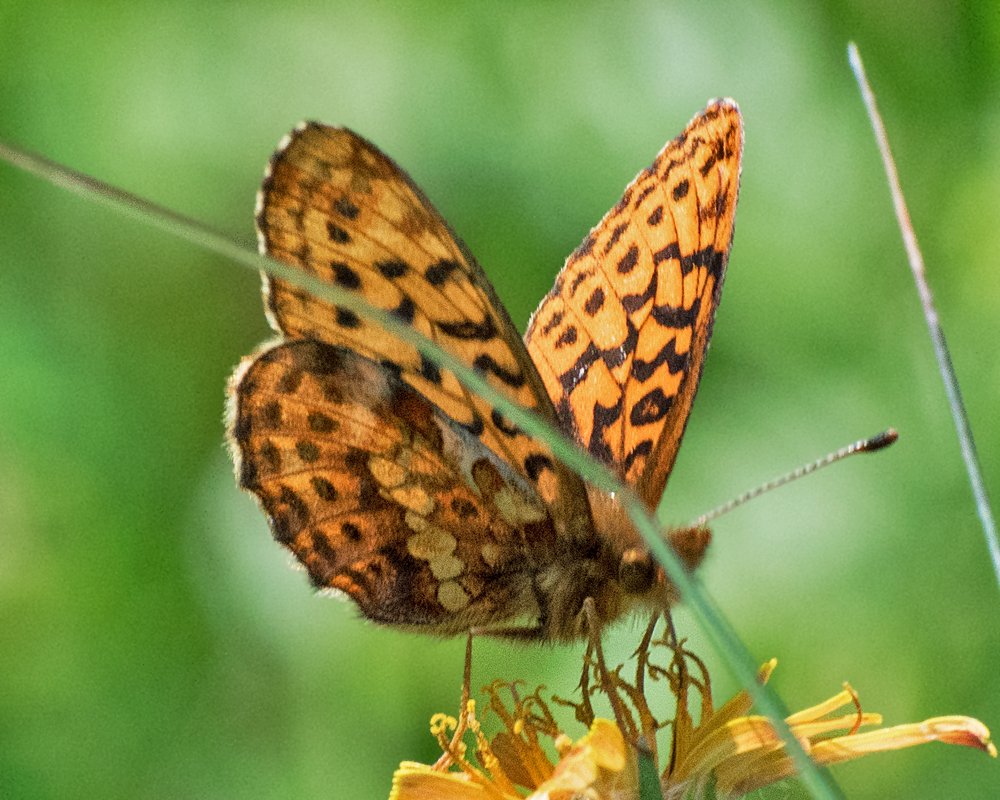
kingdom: Animalia
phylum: Arthropoda
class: Insecta
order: Lepidoptera
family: Nymphalidae
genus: Boloria
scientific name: Boloria epithore
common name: Pacific Fritillary
